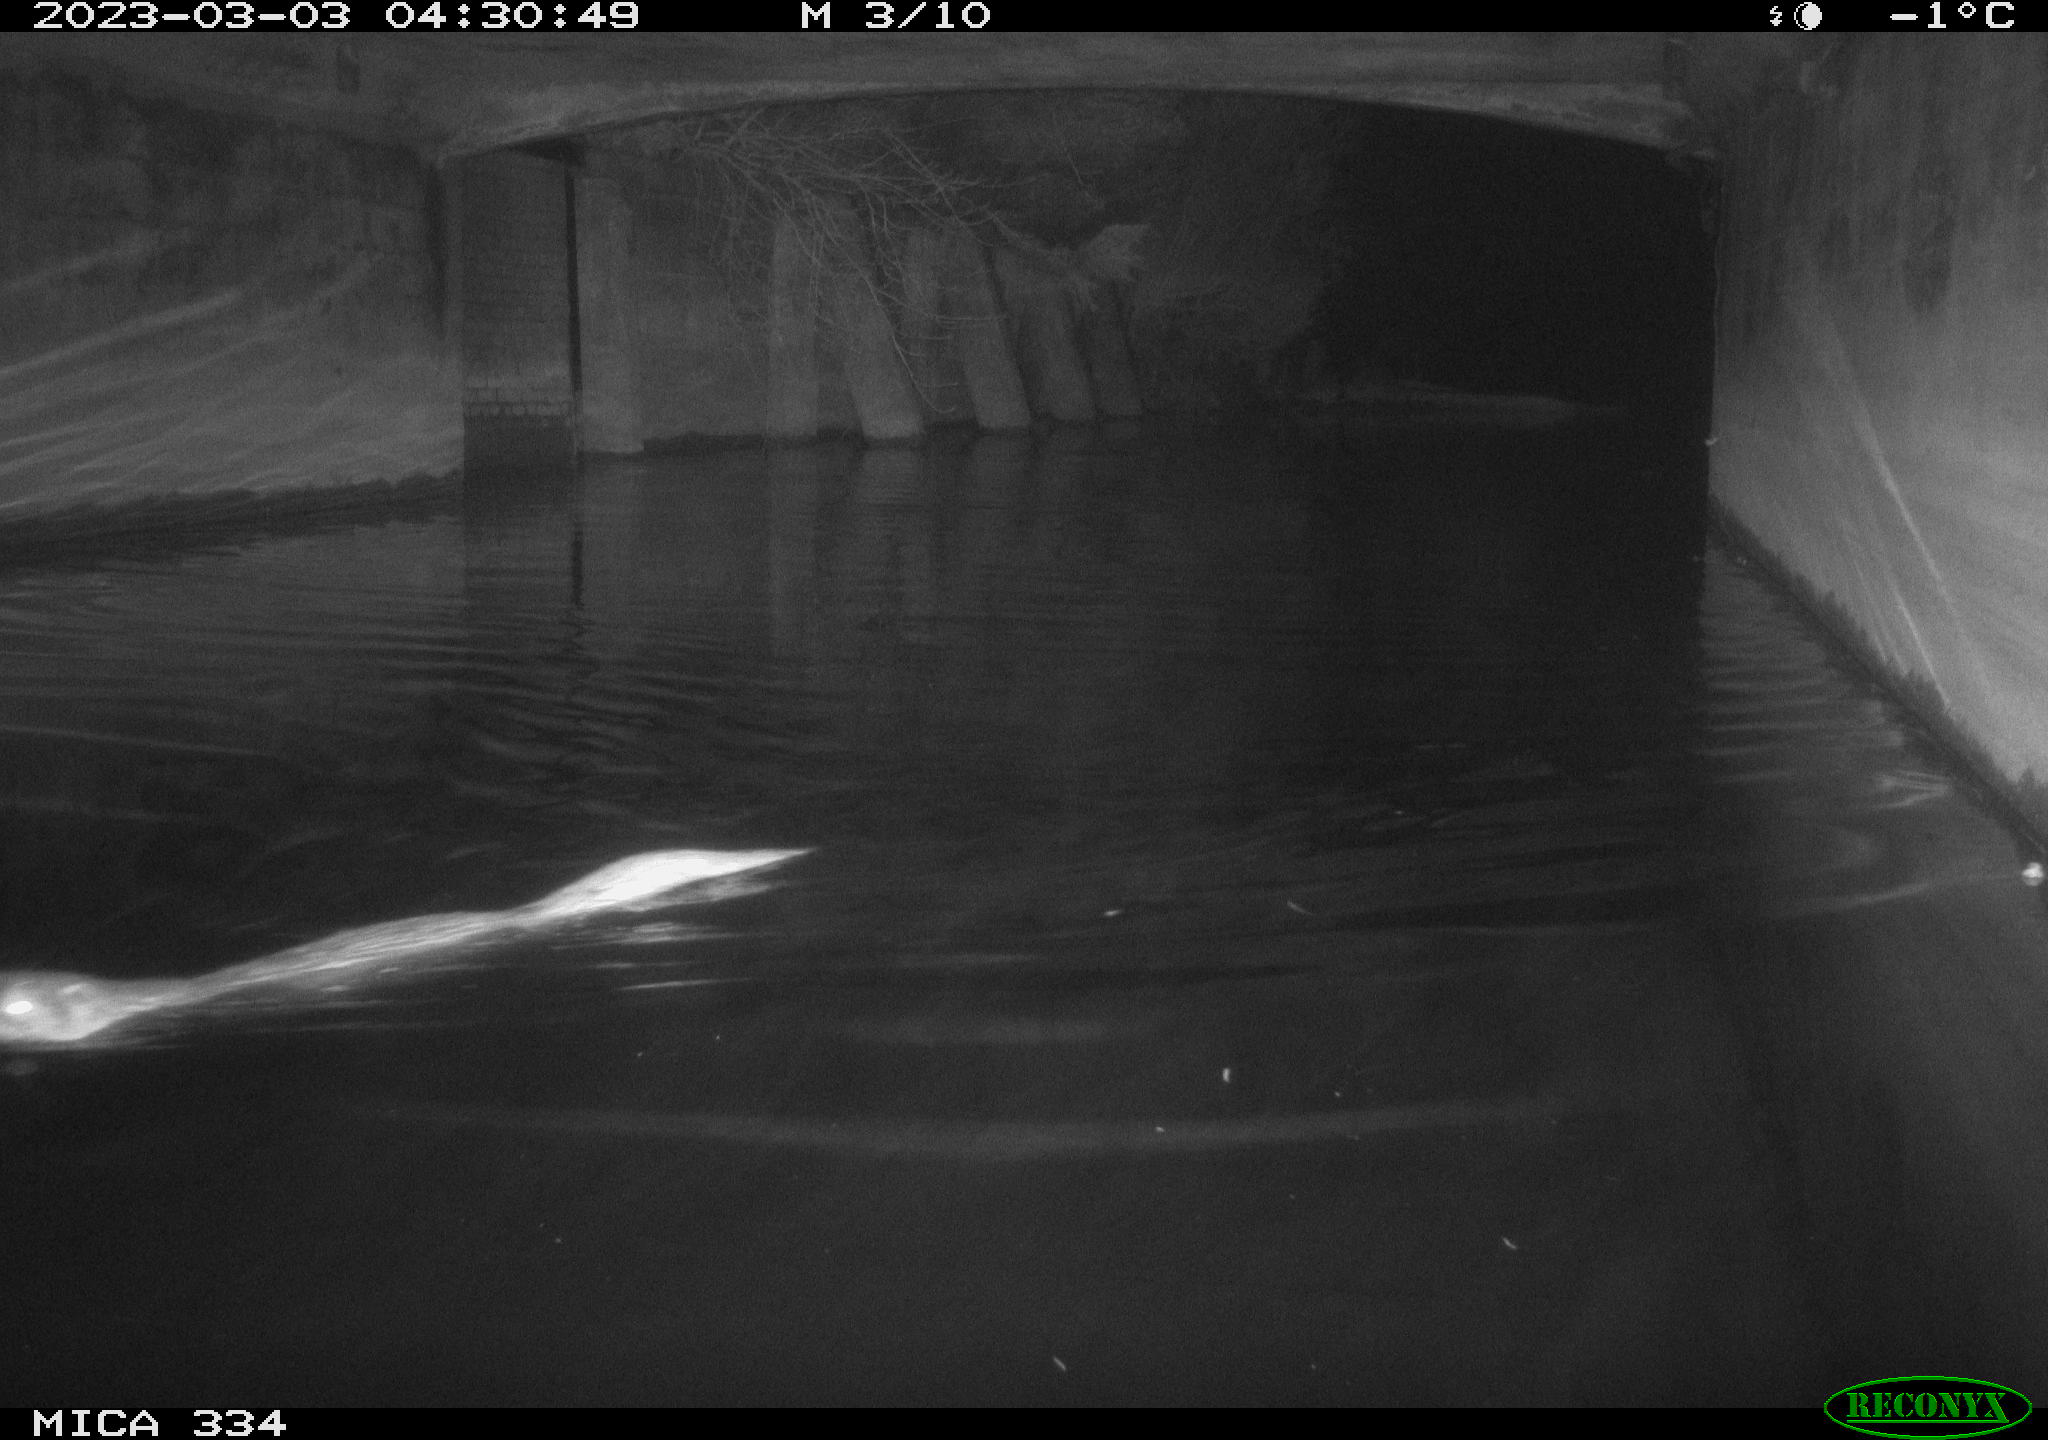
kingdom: Animalia
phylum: Chordata
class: Mammalia
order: Carnivora
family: Mustelidae
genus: Lutra
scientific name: Lutra lutra
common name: European otter
